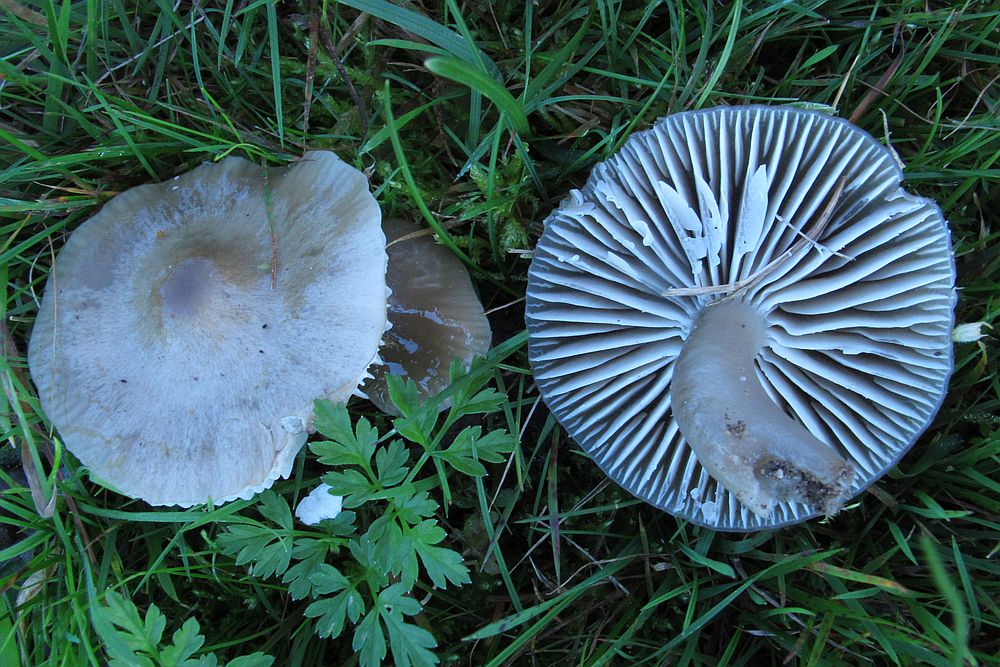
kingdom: Fungi
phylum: Basidiomycota
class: Agaricomycetes
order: Agaricales
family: Hygrophoraceae
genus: Gliophorus
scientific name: Gliophorus irrigatus
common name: slimet vokshat
